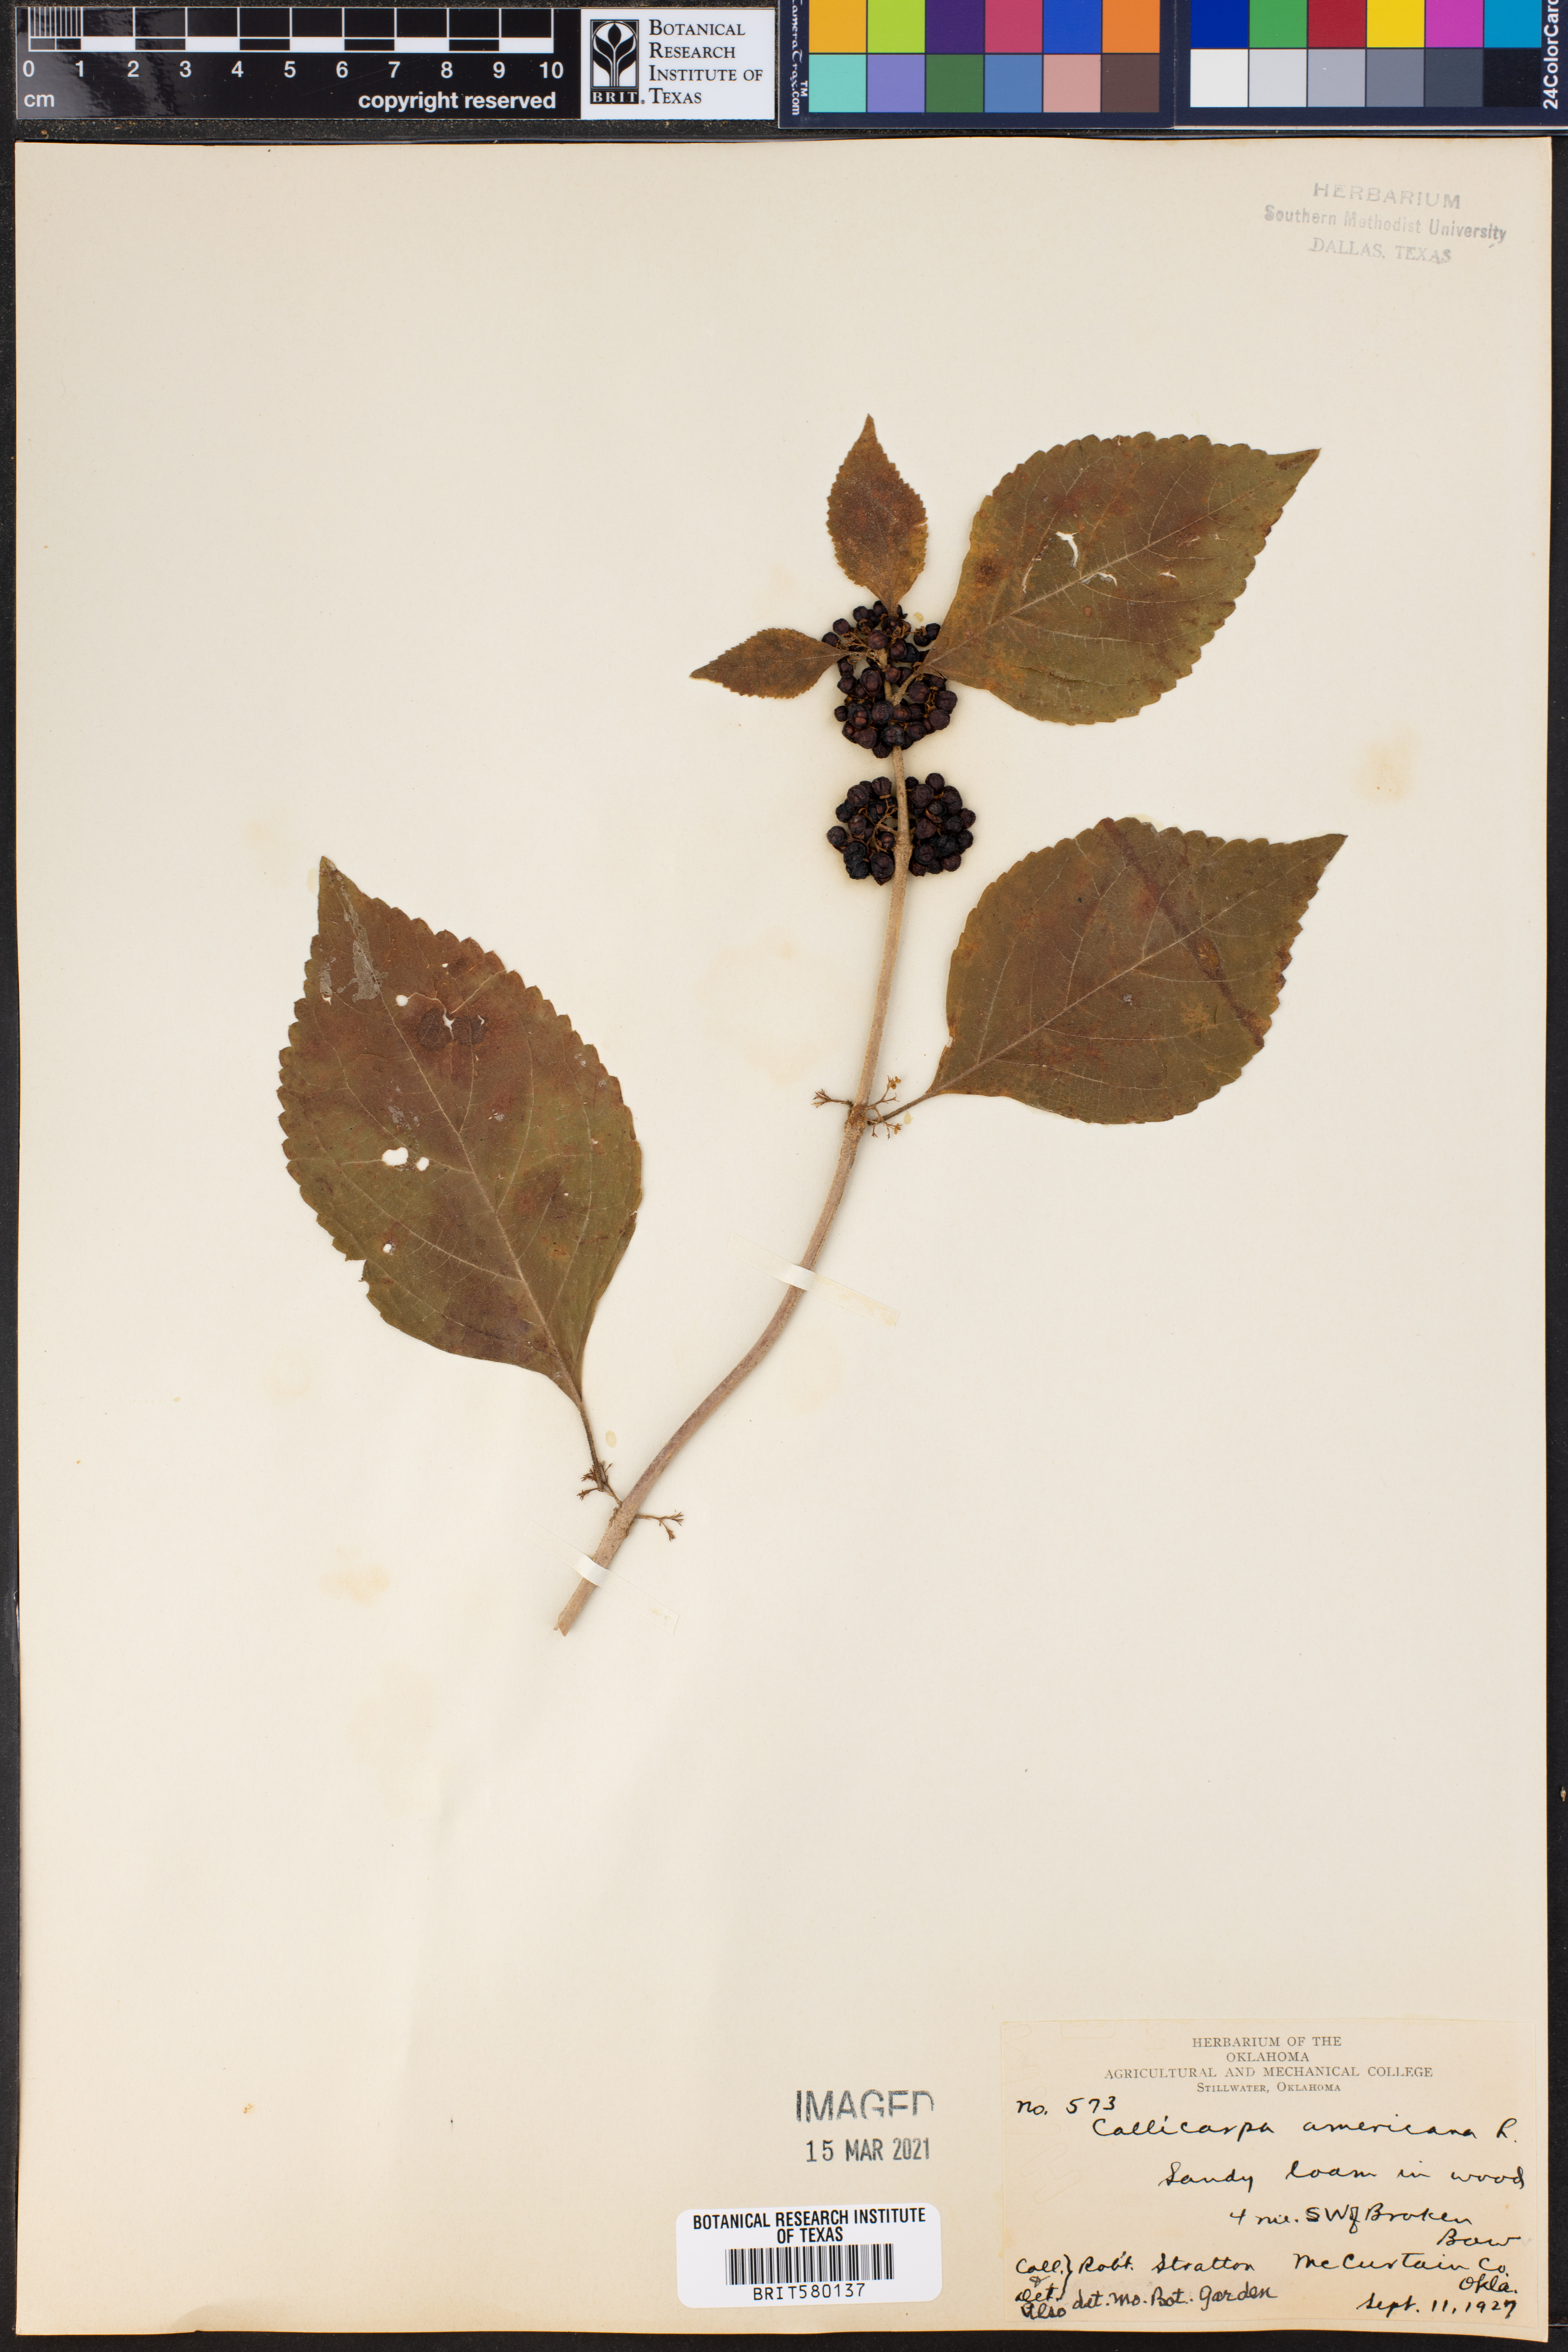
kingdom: Plantae
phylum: Tracheophyta
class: Magnoliopsida
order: Lamiales
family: Lamiaceae
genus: Callicarpa
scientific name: Callicarpa americana
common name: American beautyberry
